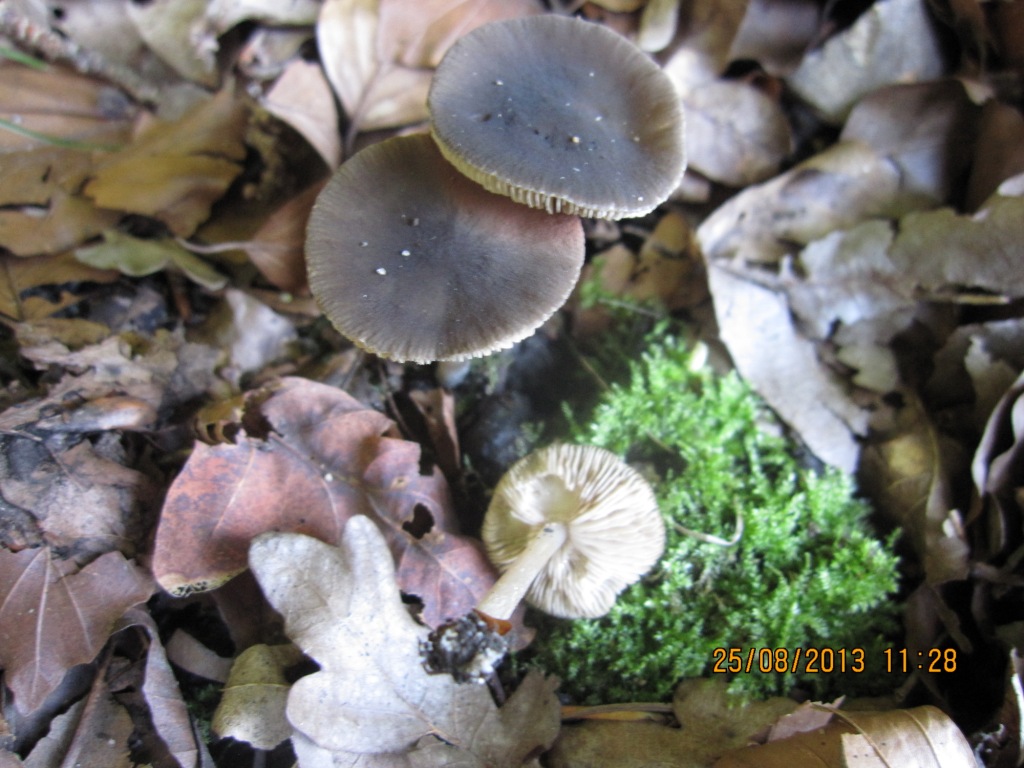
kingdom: Fungi
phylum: Basidiomycota
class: Agaricomycetes
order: Agaricales
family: Pluteaceae
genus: Pluteus
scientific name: Pluteus
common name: pudret skærmhat
